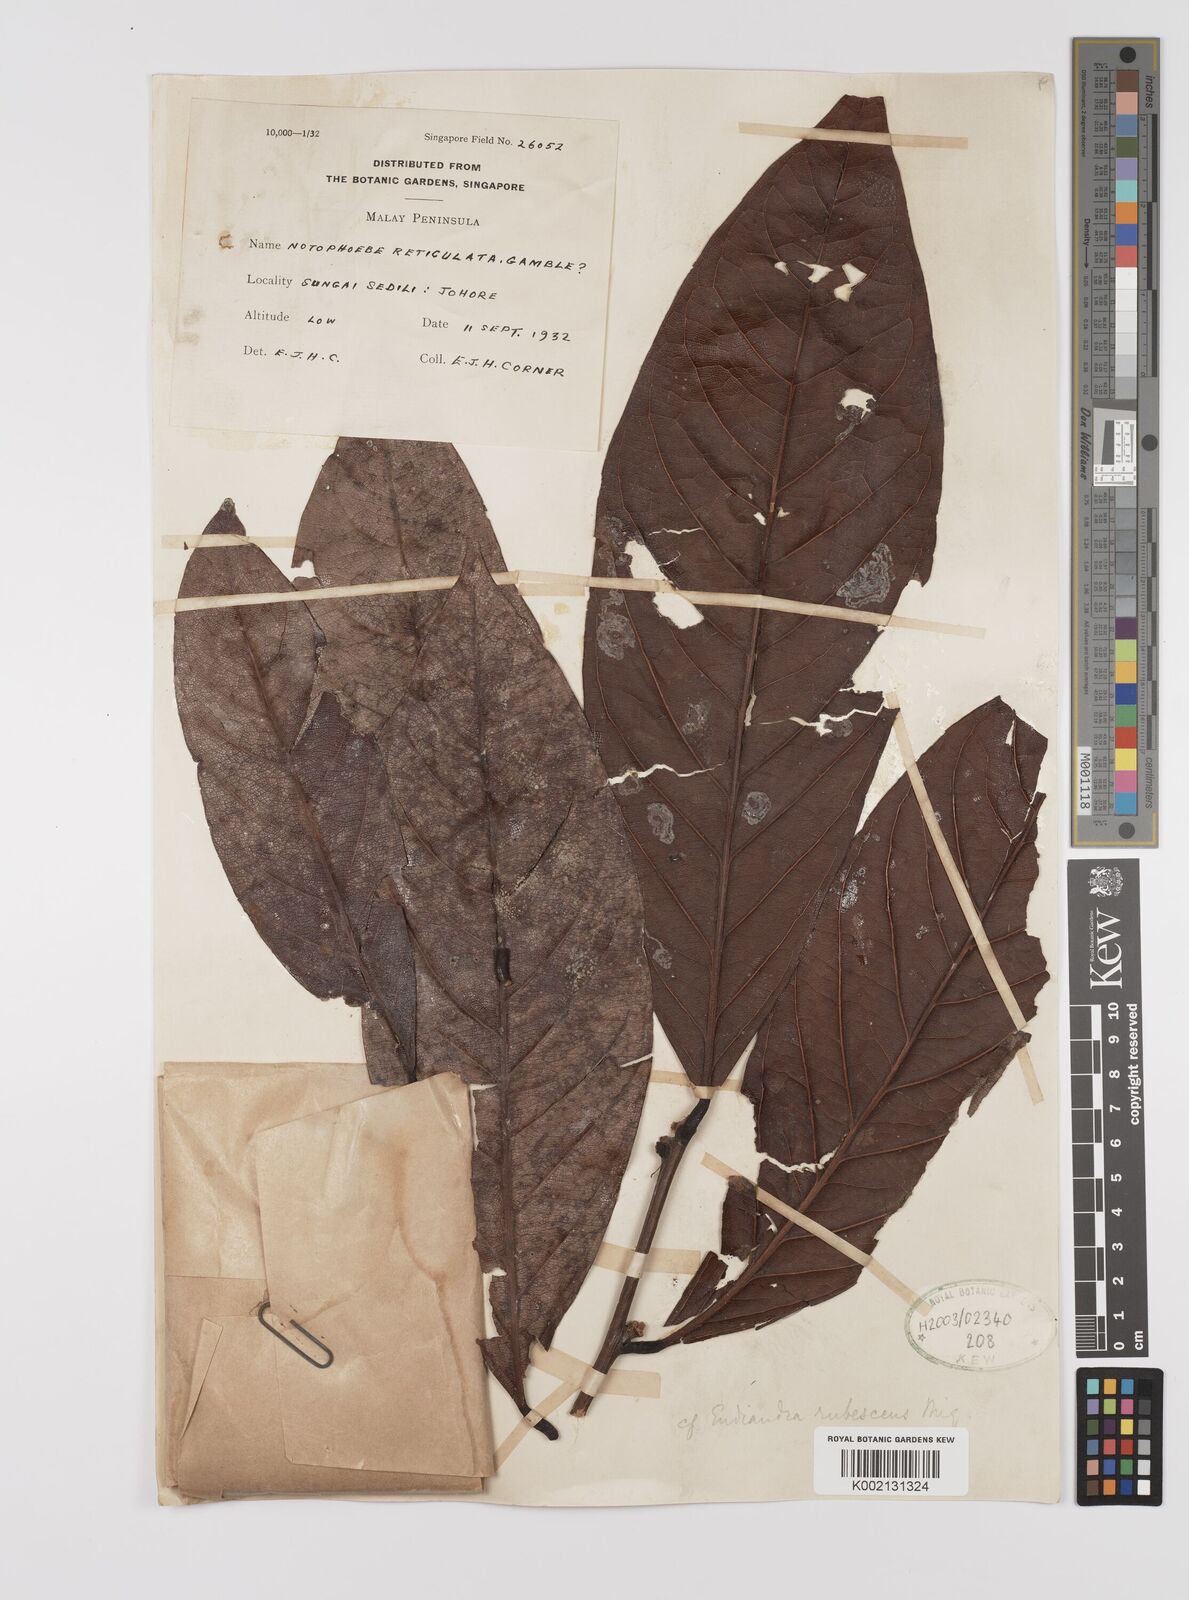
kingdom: Plantae
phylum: Tracheophyta
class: Magnoliopsida
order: Laurales
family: Lauraceae
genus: Endiandra
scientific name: Endiandra rubescens
